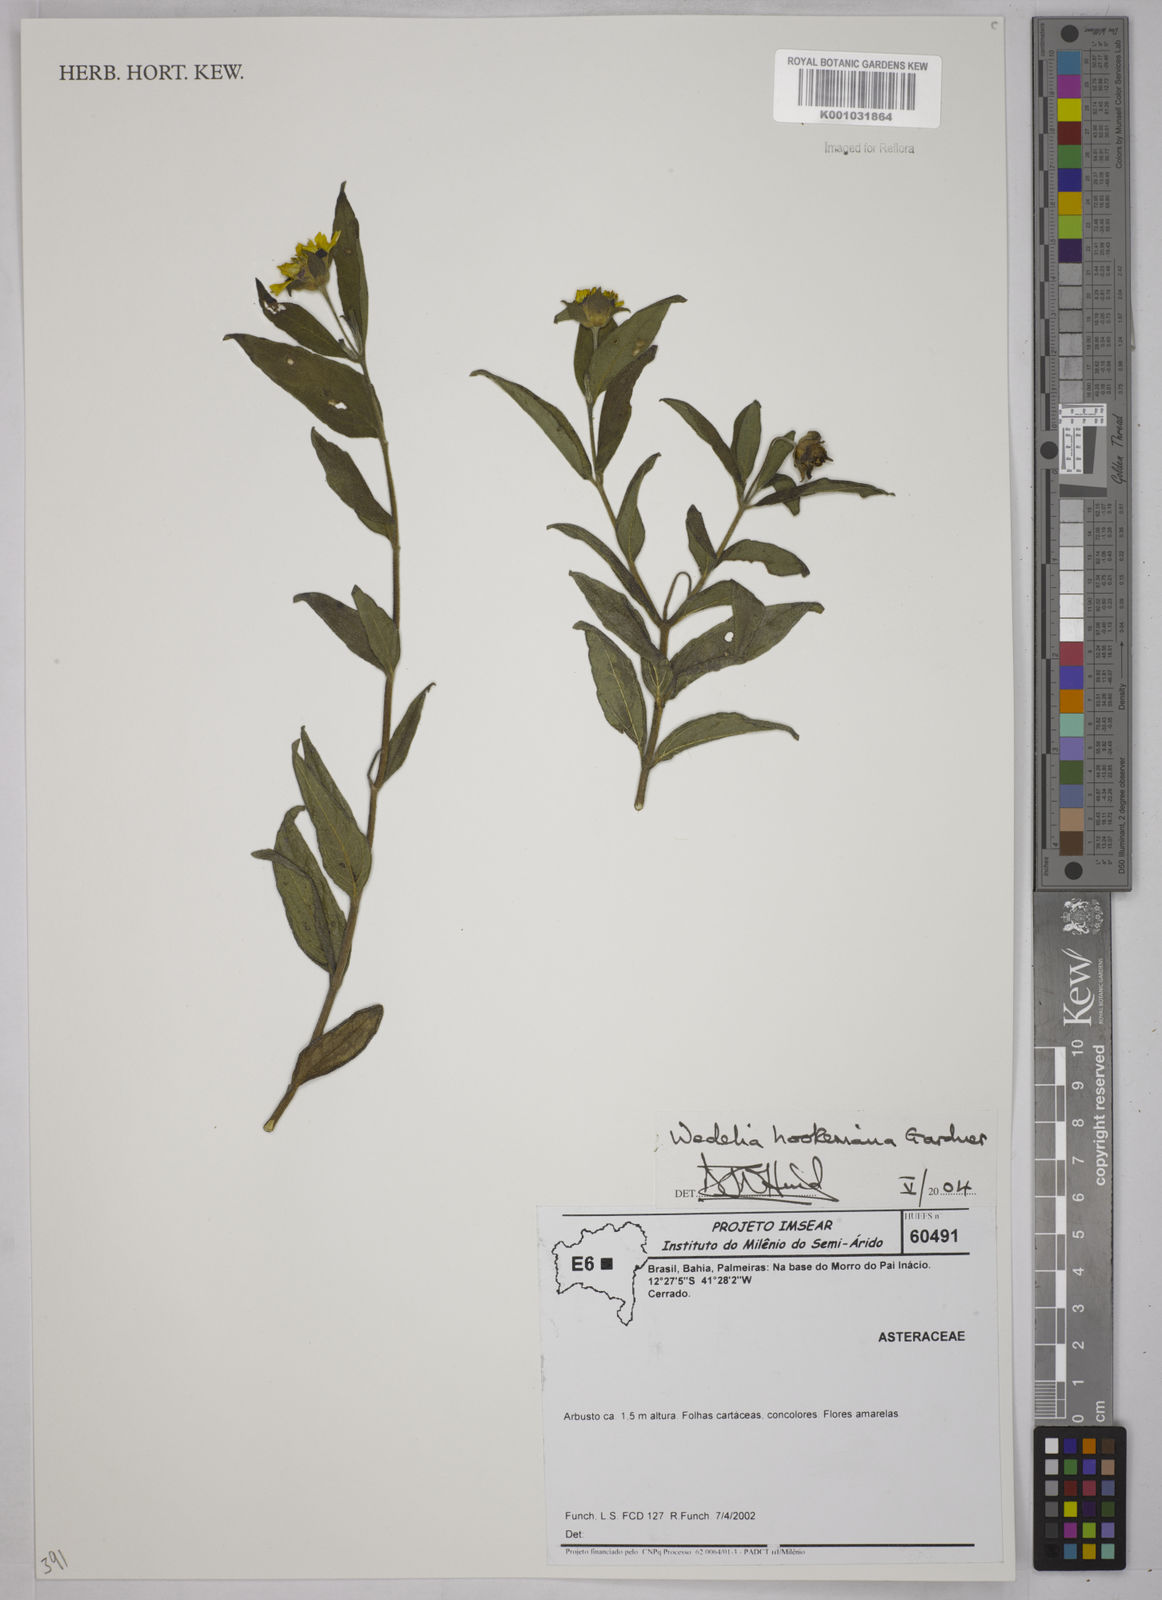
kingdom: Plantae
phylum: Tracheophyta
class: Magnoliopsida
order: Asterales
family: Asteraceae
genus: Wedelia
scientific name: Wedelia hookeriana
